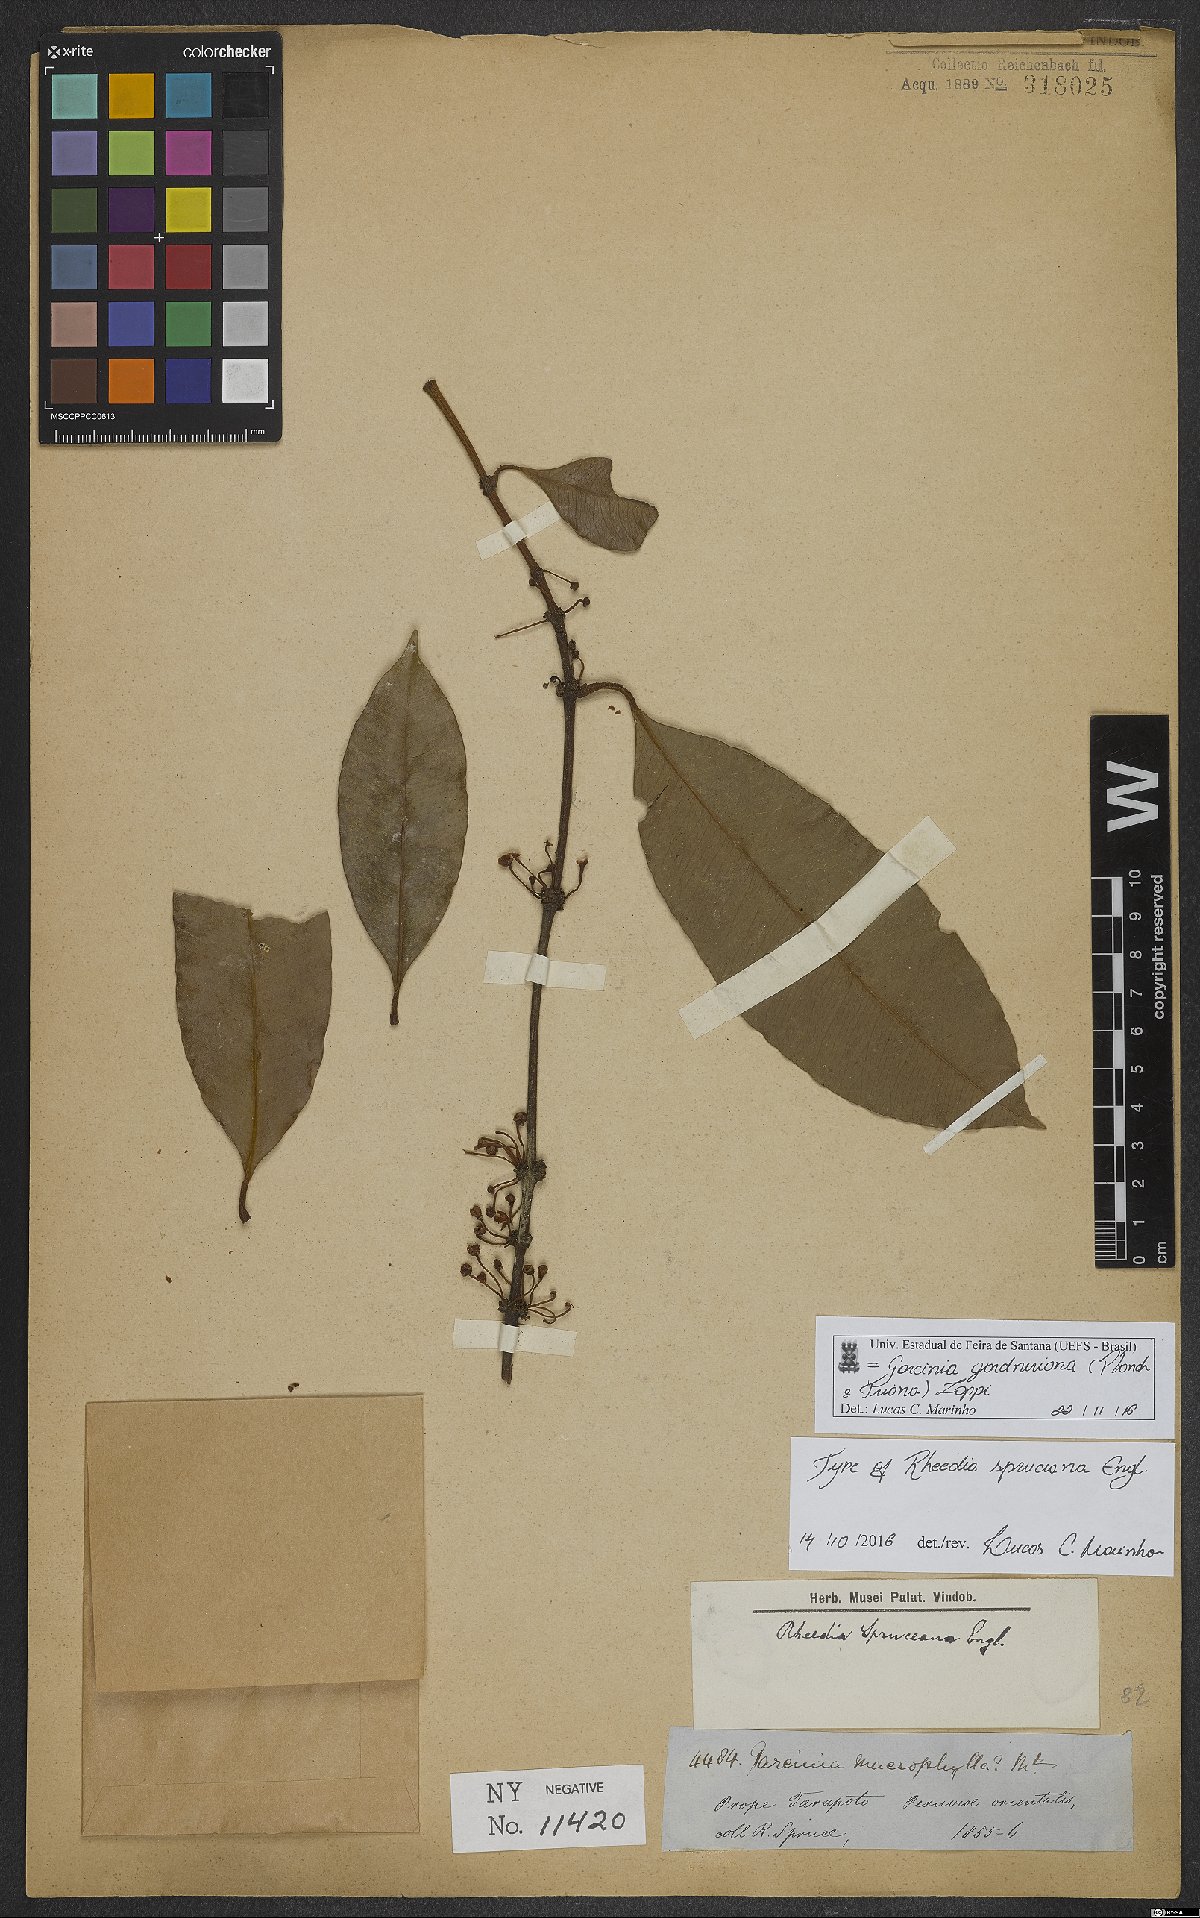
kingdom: Plantae
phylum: Tracheophyta
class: Magnoliopsida
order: Malpighiales
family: Clusiaceae
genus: Garcinia
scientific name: Garcinia gardneriana
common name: Achacha
